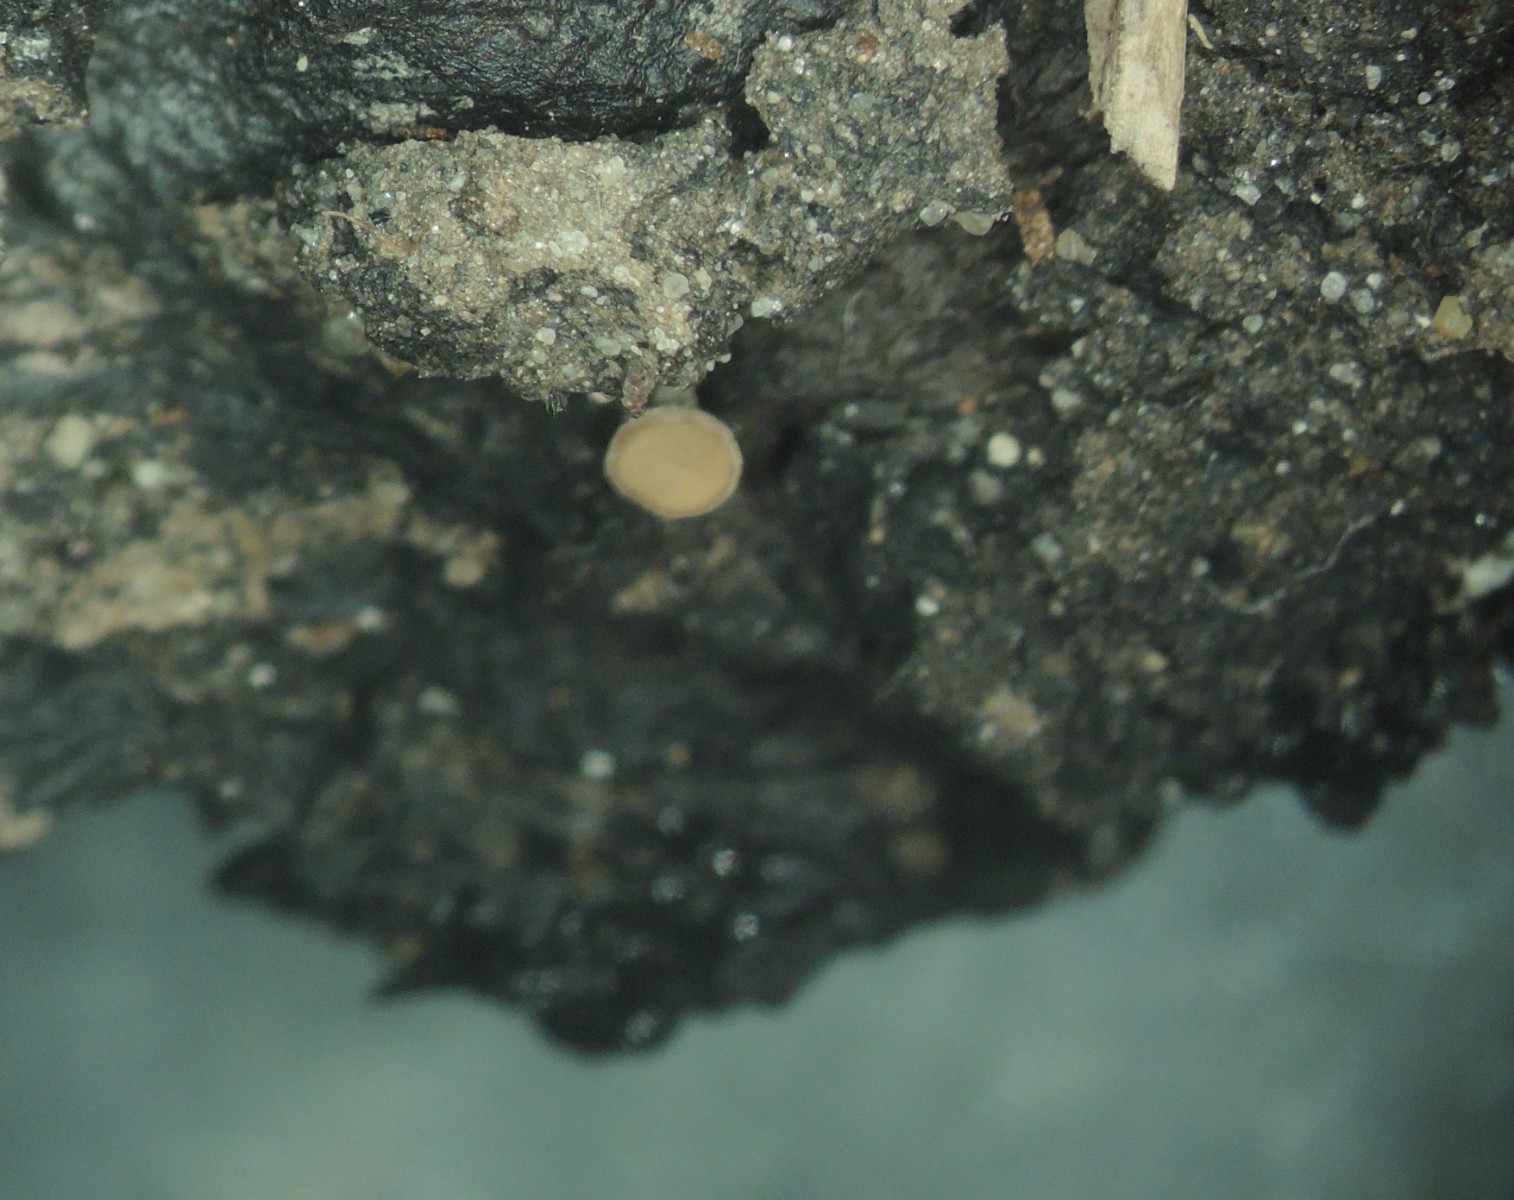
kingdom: Fungi
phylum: Ascomycota
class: Leotiomycetes
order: Helotiales
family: Rutstroemiaceae
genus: Lambertella
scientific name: Lambertella corni-maris
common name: frugt-sodskive
